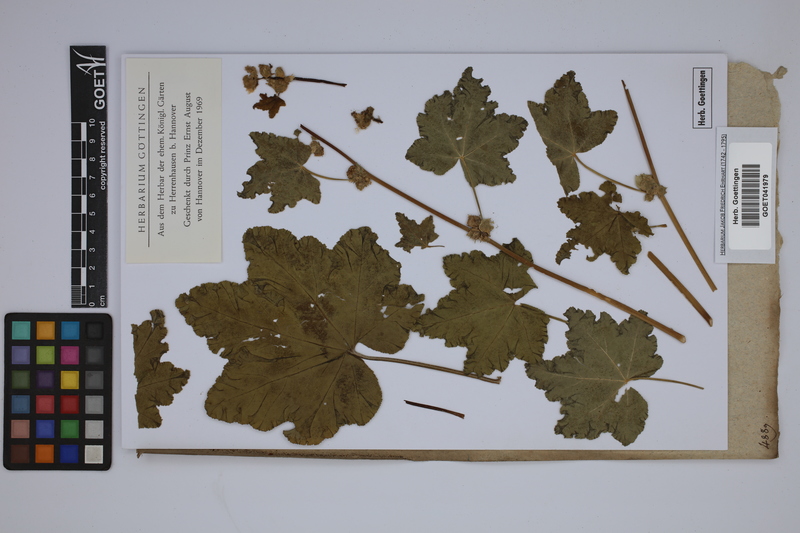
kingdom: Plantae
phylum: Tracheophyta
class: Magnoliopsida
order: Malvales
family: Malvaceae
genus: Malva
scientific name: Malva nicaeensis
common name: French mallow
